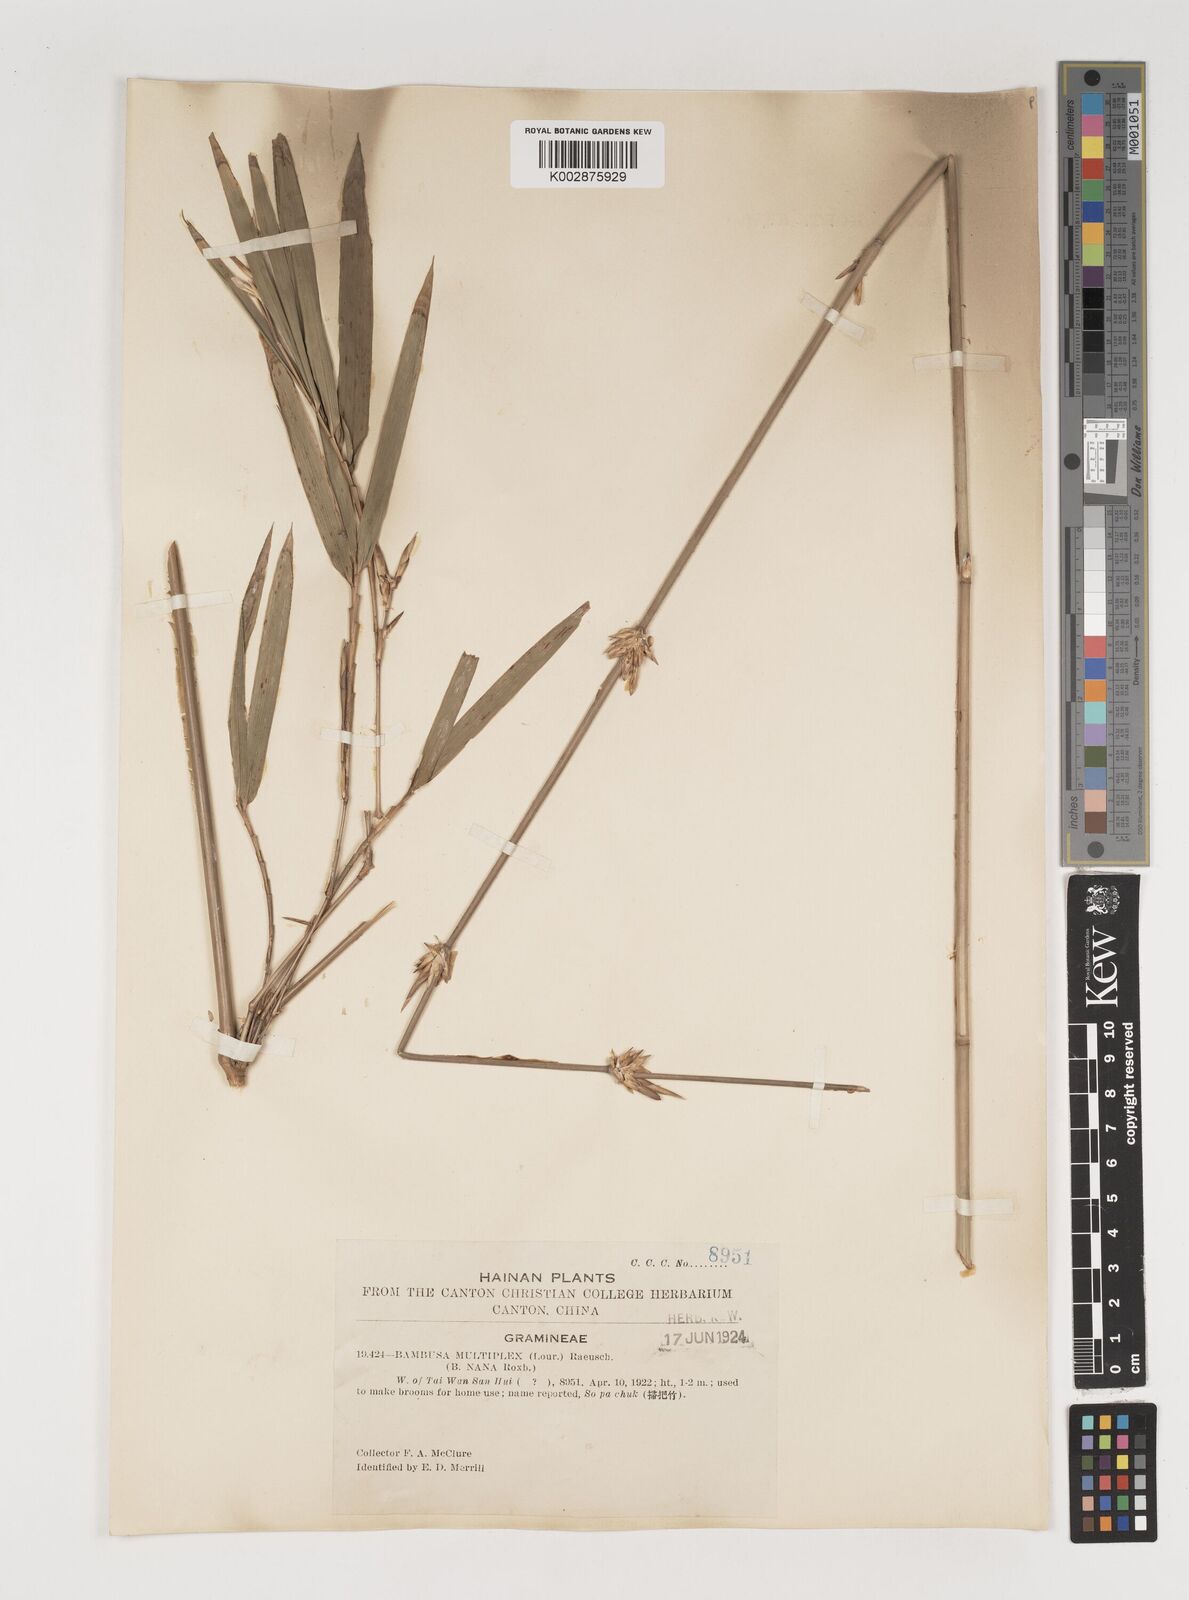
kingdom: Plantae
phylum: Tracheophyta
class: Liliopsida
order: Poales
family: Poaceae
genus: Bambusa
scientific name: Bambusa multiplex
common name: Hedge bamboo
